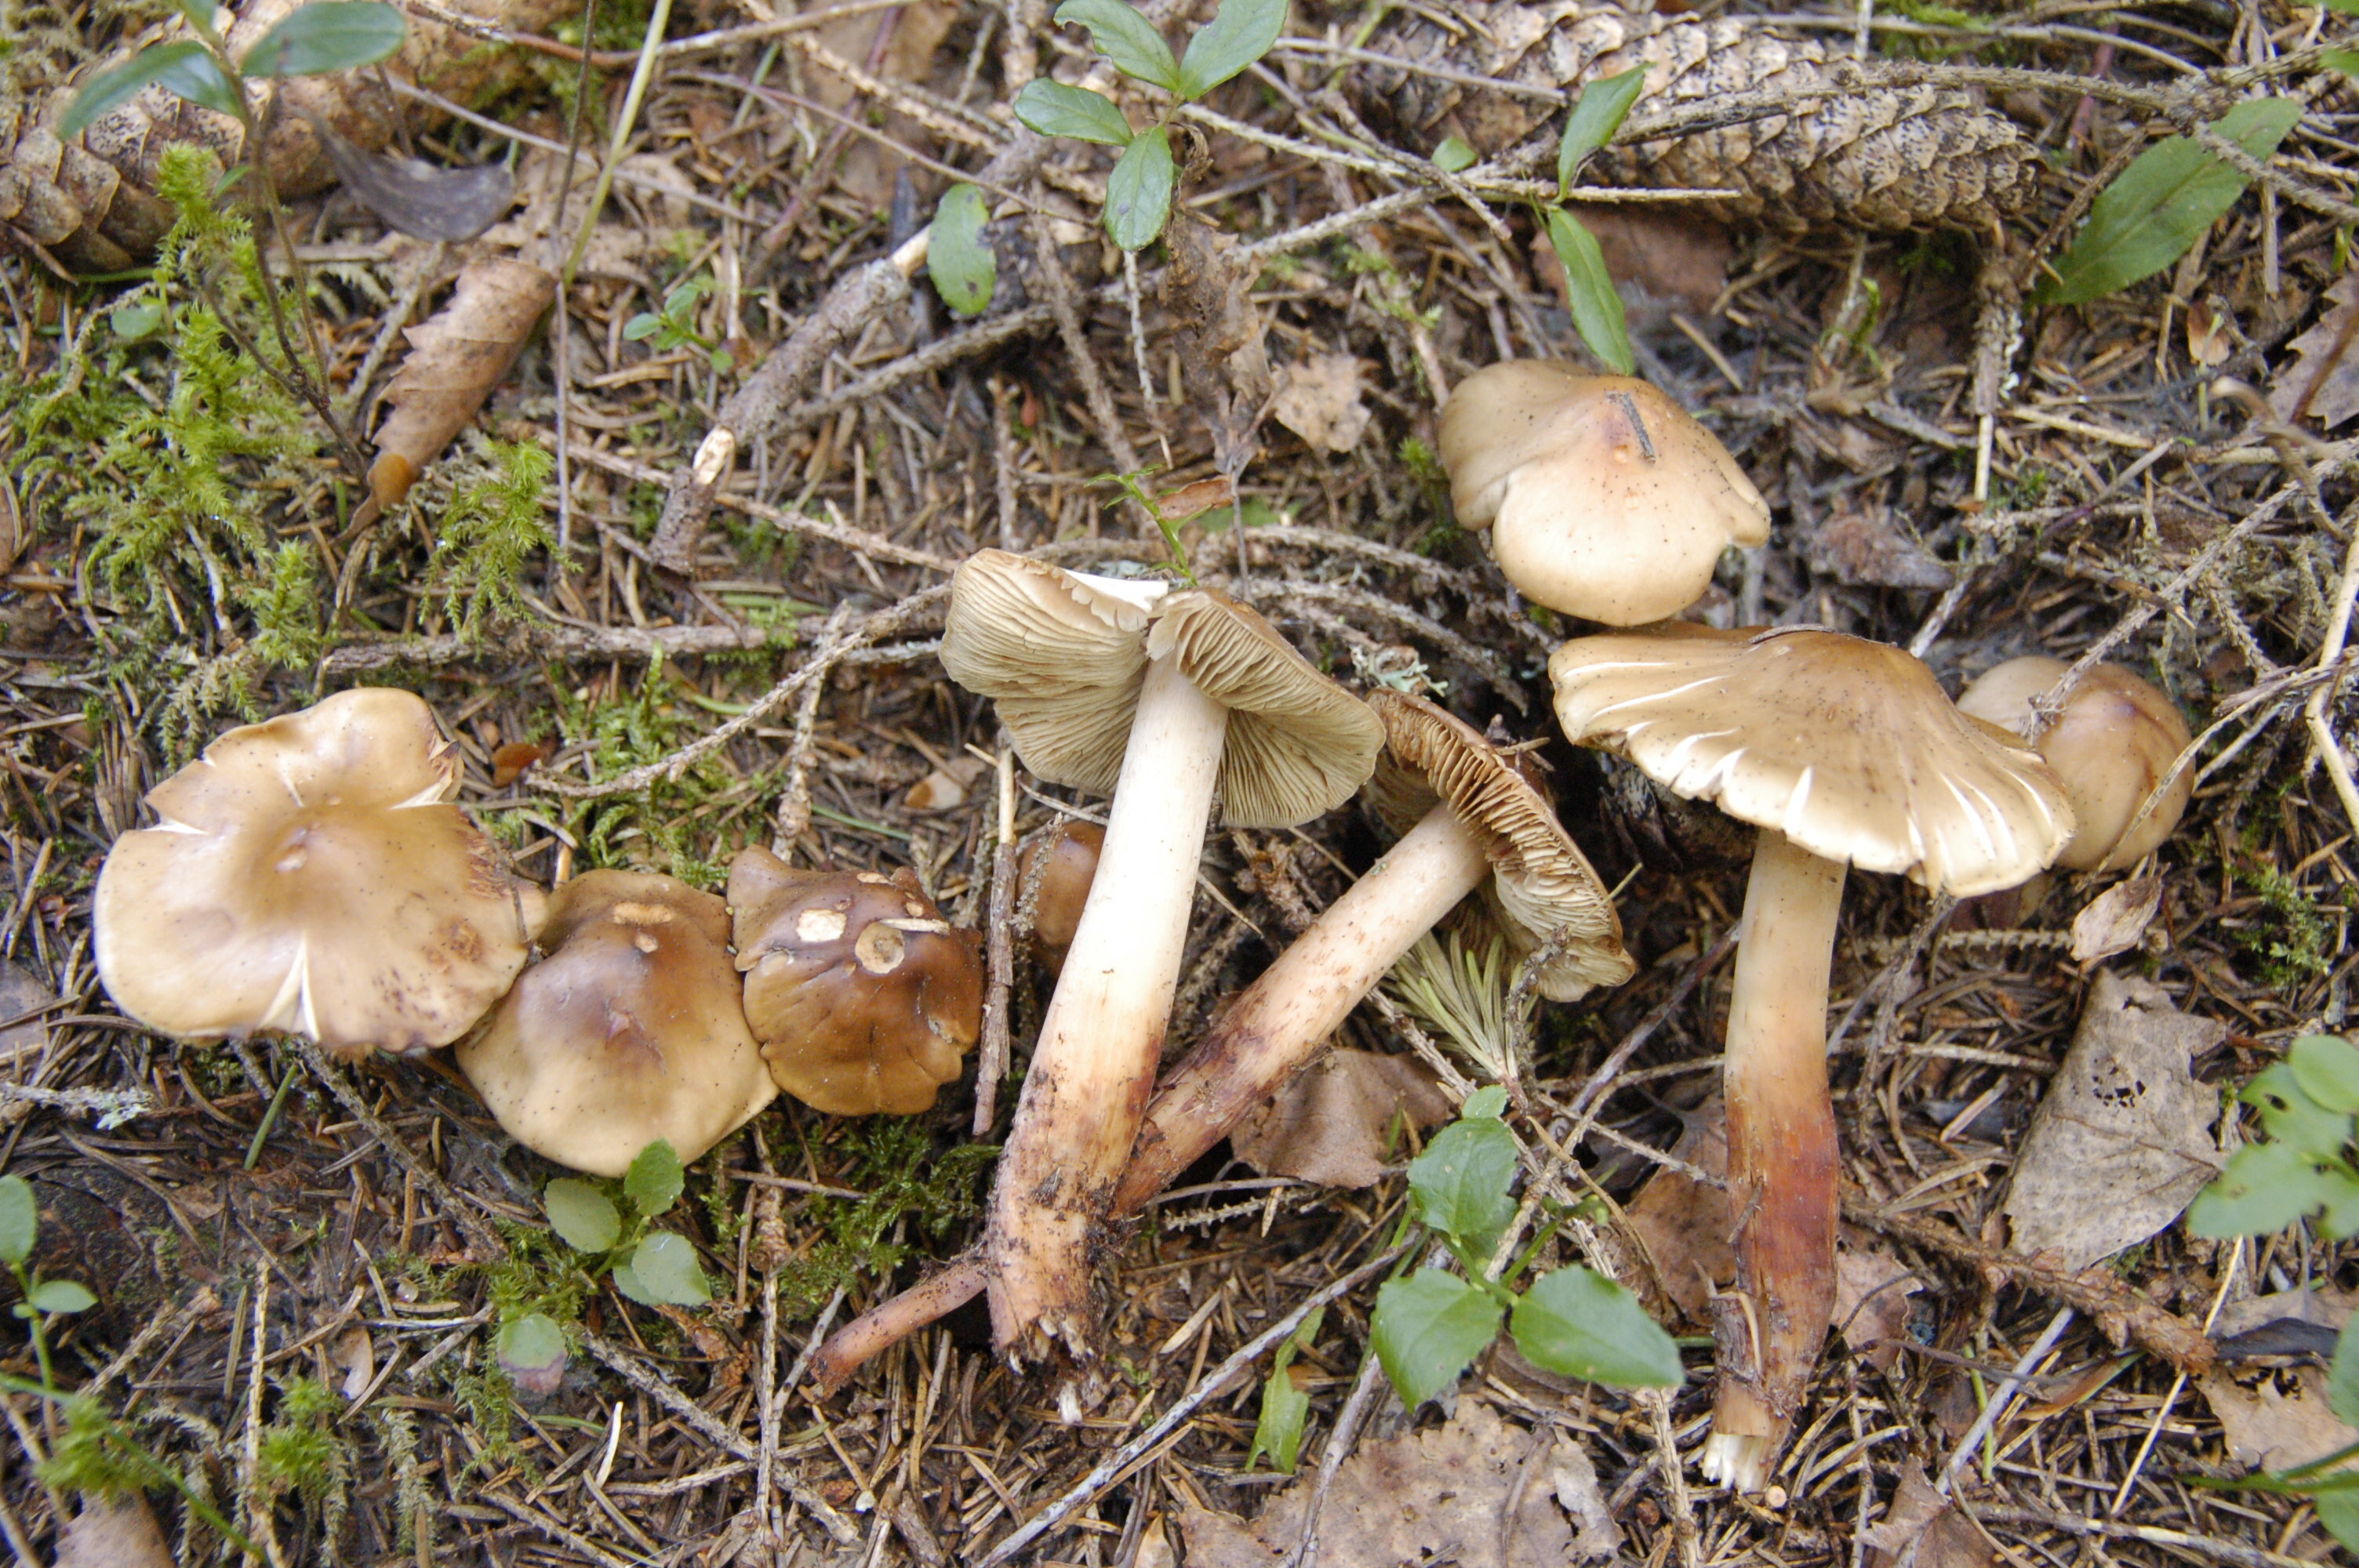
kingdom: Fungi
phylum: Basidiomycota
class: Agaricomycetes
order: Agaricales
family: Hymenogastraceae
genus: Phaeocollybia
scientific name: Phaeocollybia lugubris
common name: Russet rootshank
